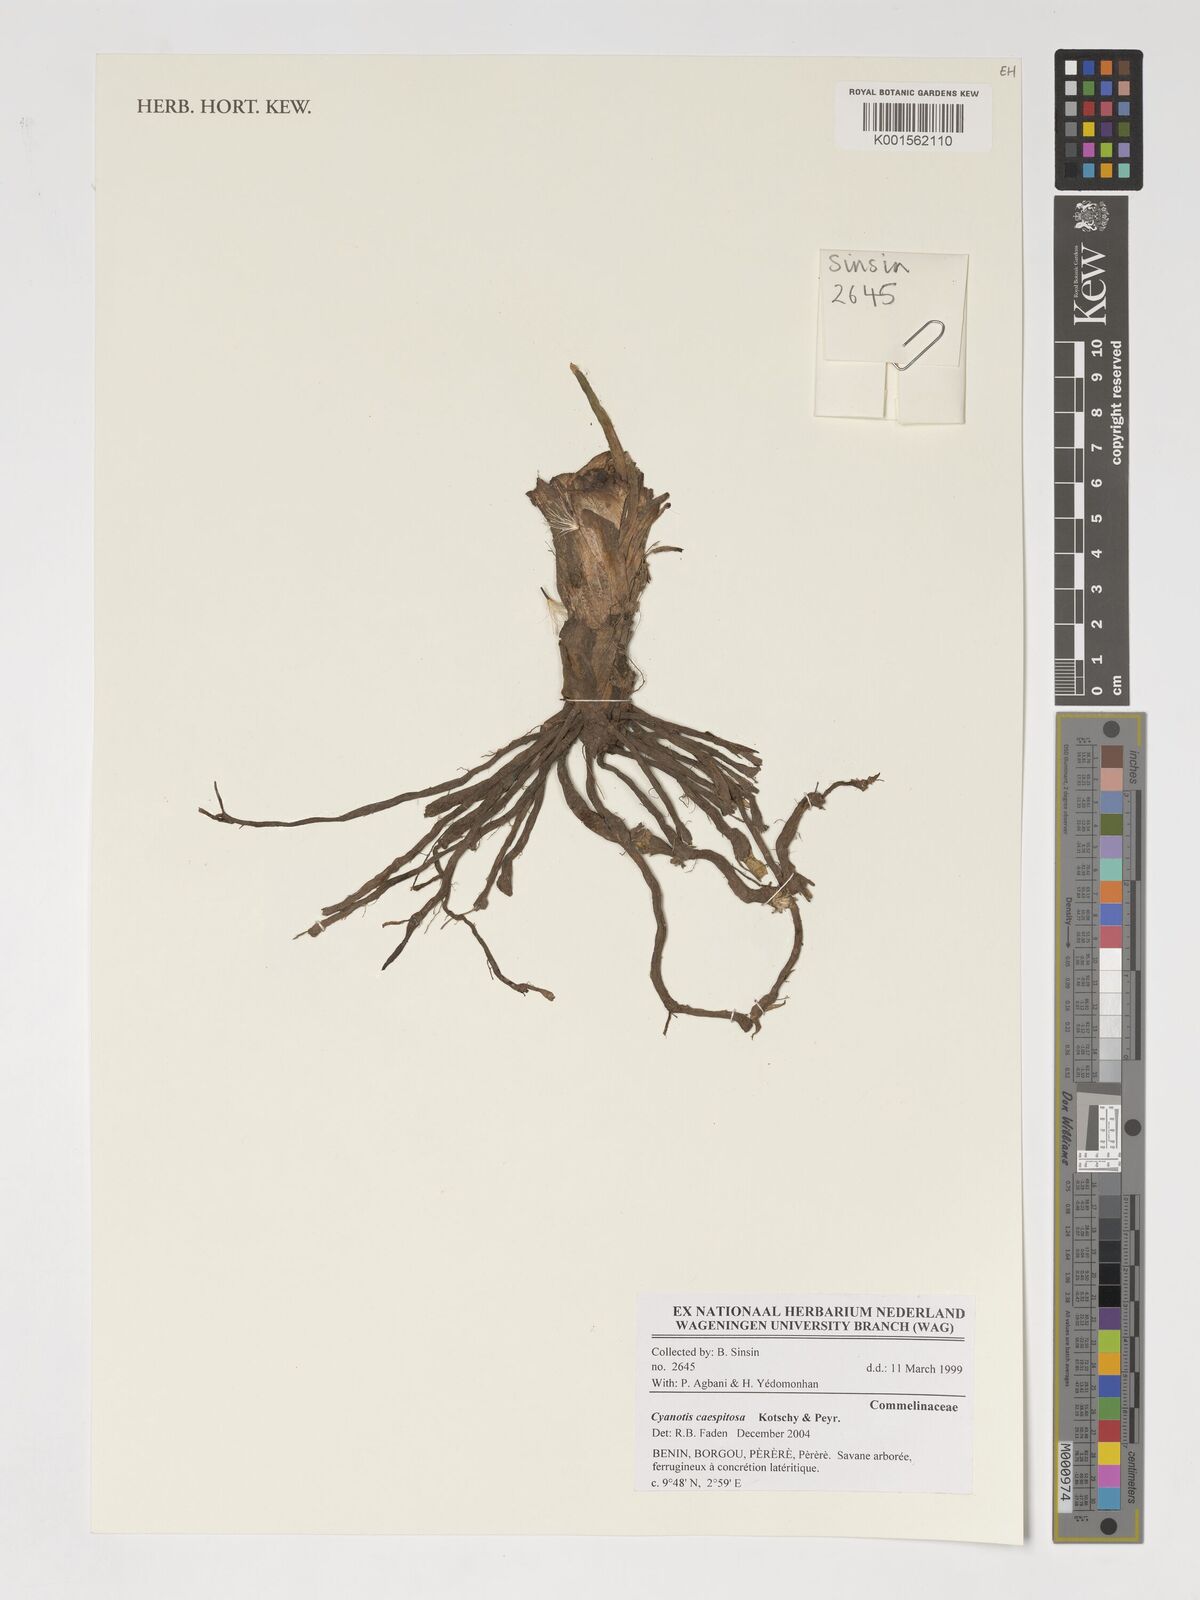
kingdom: Plantae
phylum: Tracheophyta
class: Liliopsida
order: Commelinales
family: Commelinaceae
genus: Cyanotis
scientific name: Cyanotis caespitosa
